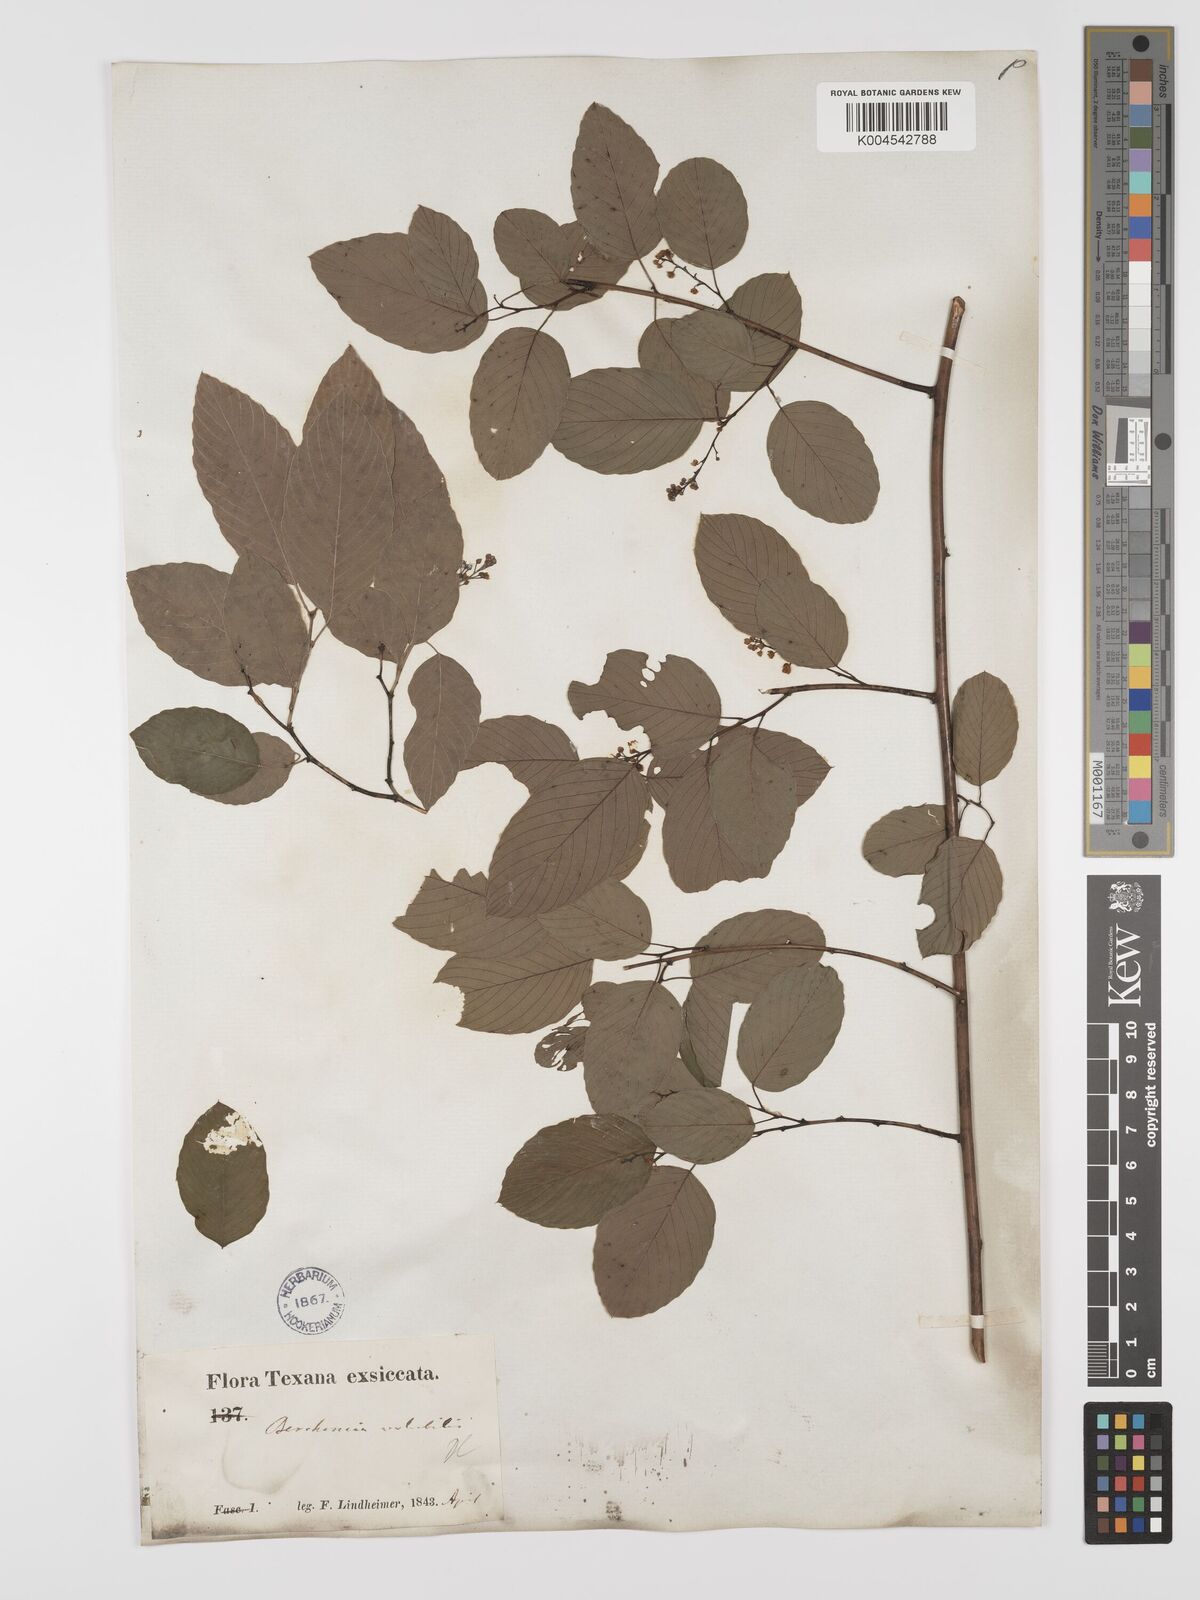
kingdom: Plantae
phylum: Tracheophyta
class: Magnoliopsida
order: Rosales
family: Rhamnaceae
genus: Berchemia
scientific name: Berchemia scandens
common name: Supplejack
